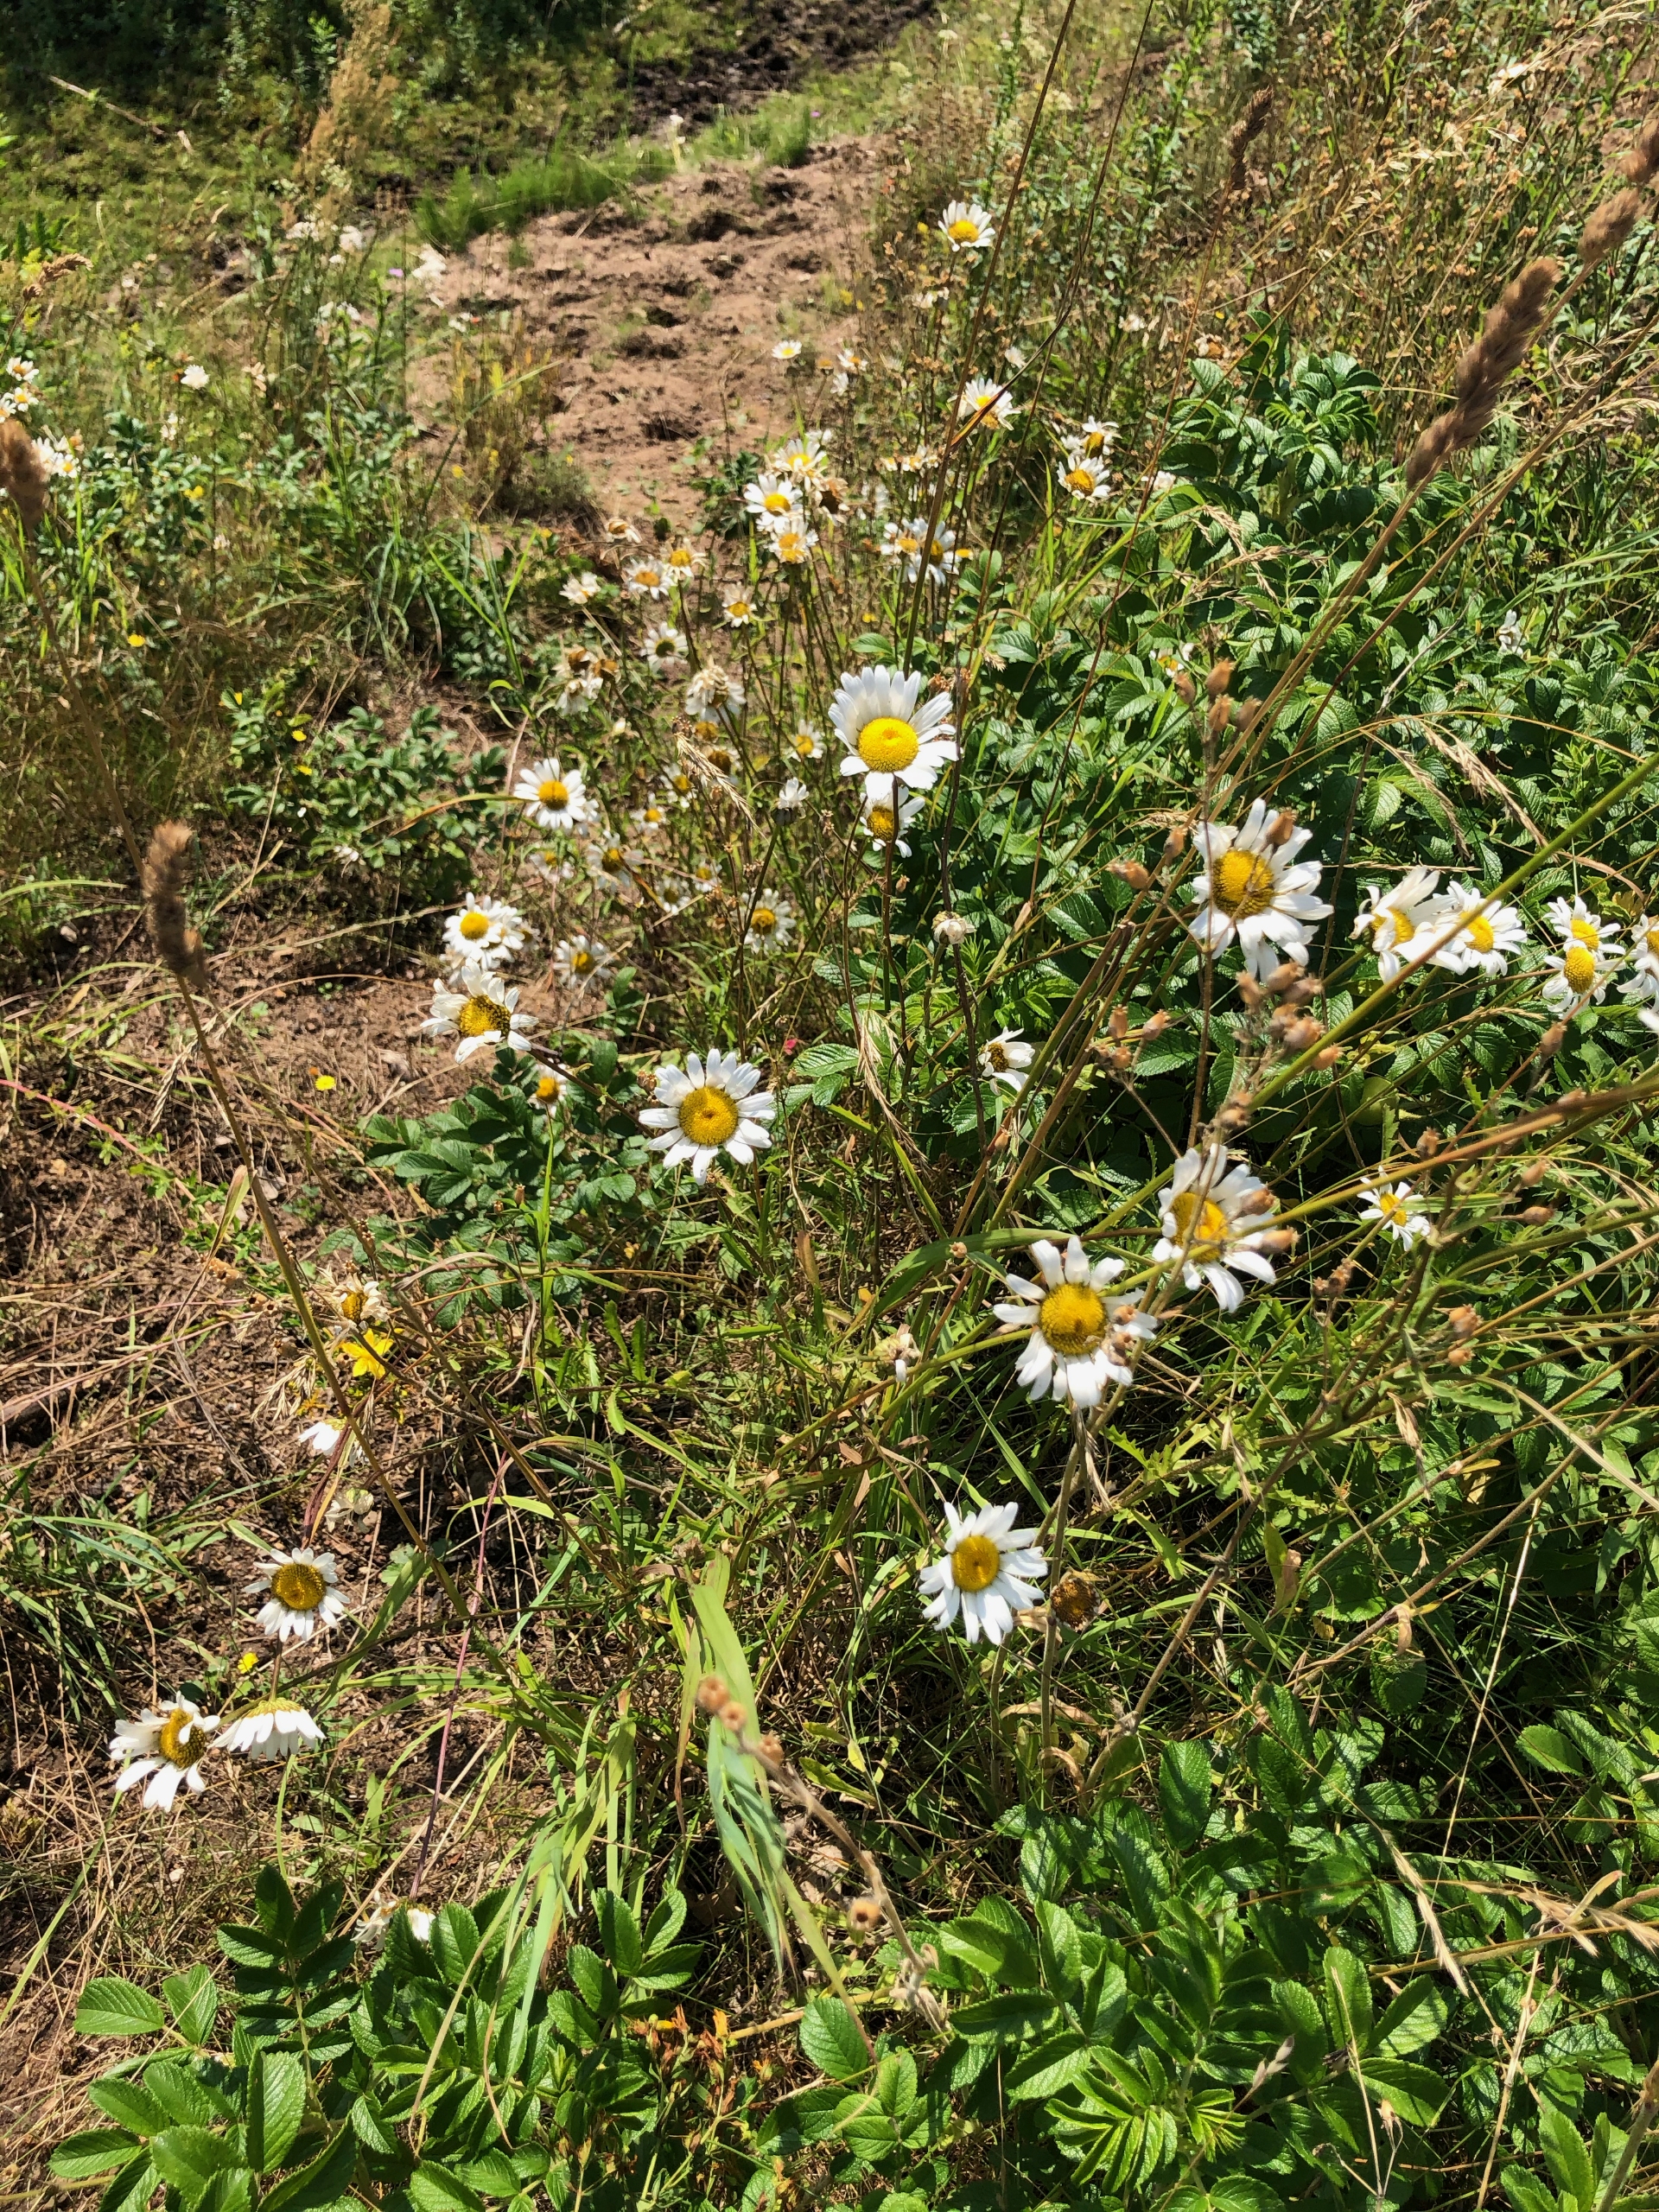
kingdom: Plantae
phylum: Tracheophyta
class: Magnoliopsida
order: Asterales
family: Asteraceae
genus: Leucanthemum
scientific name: Leucanthemum vulgare
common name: Hvid okseøje
